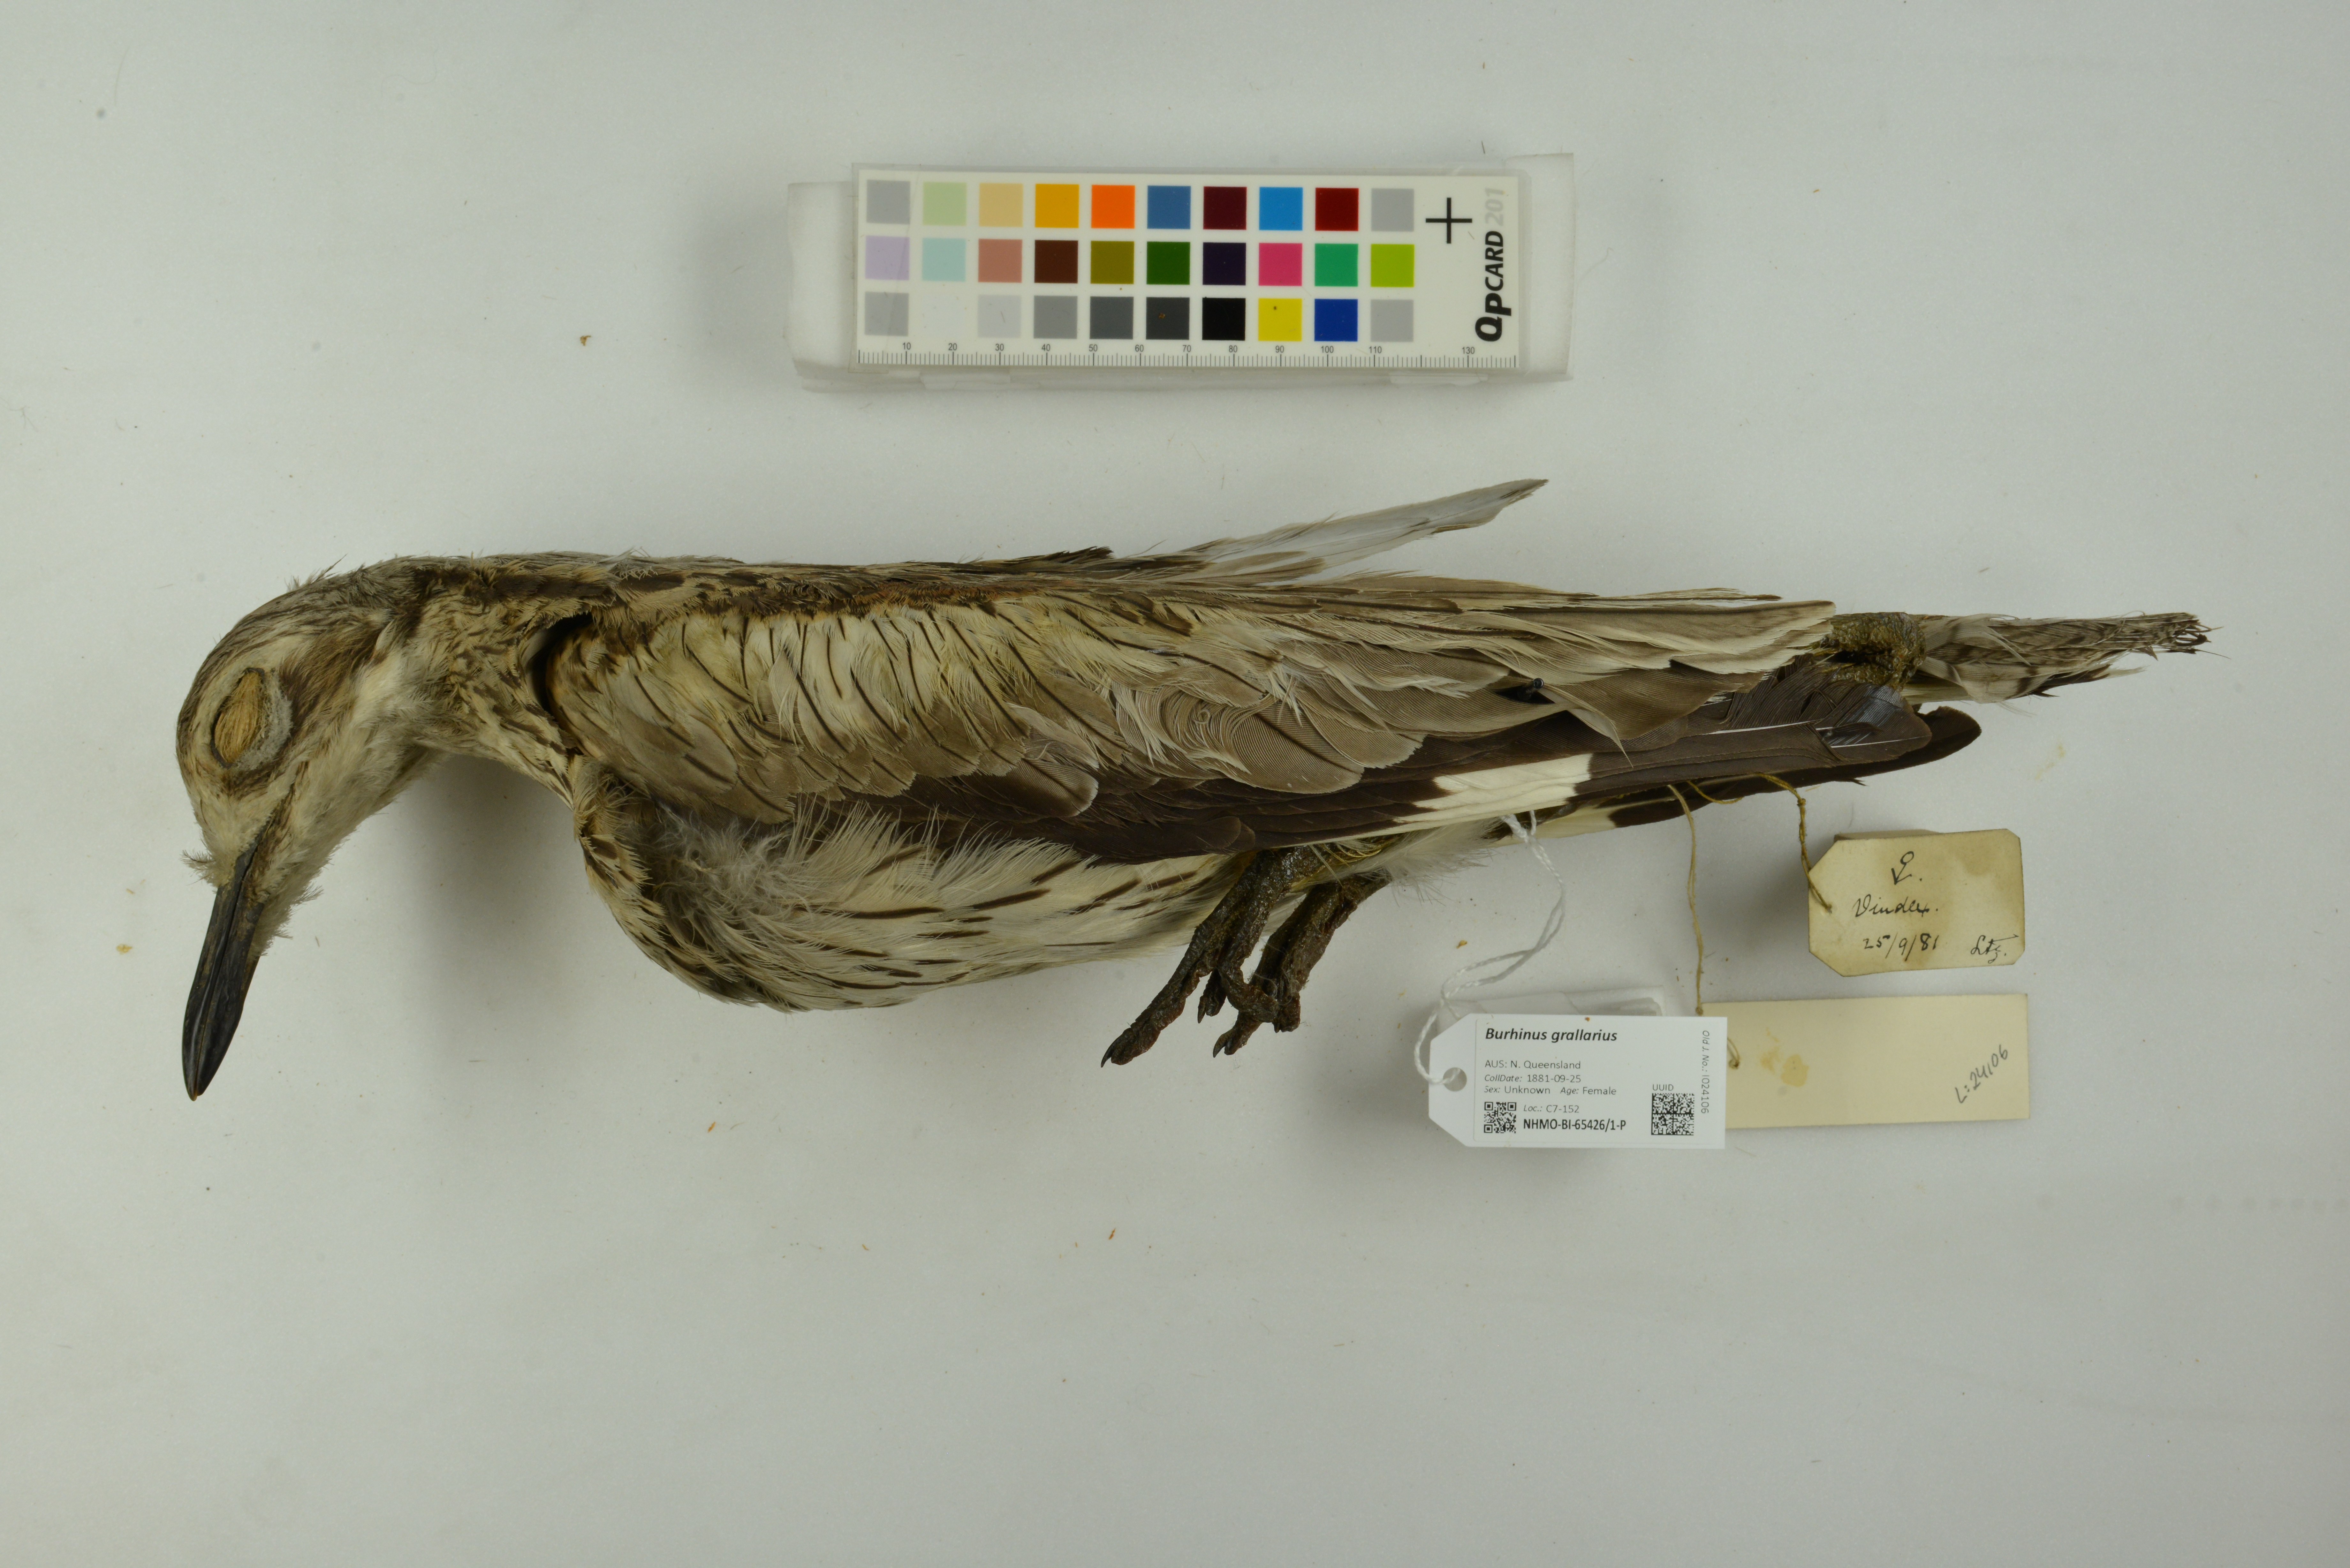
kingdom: Animalia
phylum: Chordata
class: Aves
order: Charadriiformes
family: Burhinidae
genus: Burhinus
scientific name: Burhinus grallarius
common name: Bush stone-curlew
